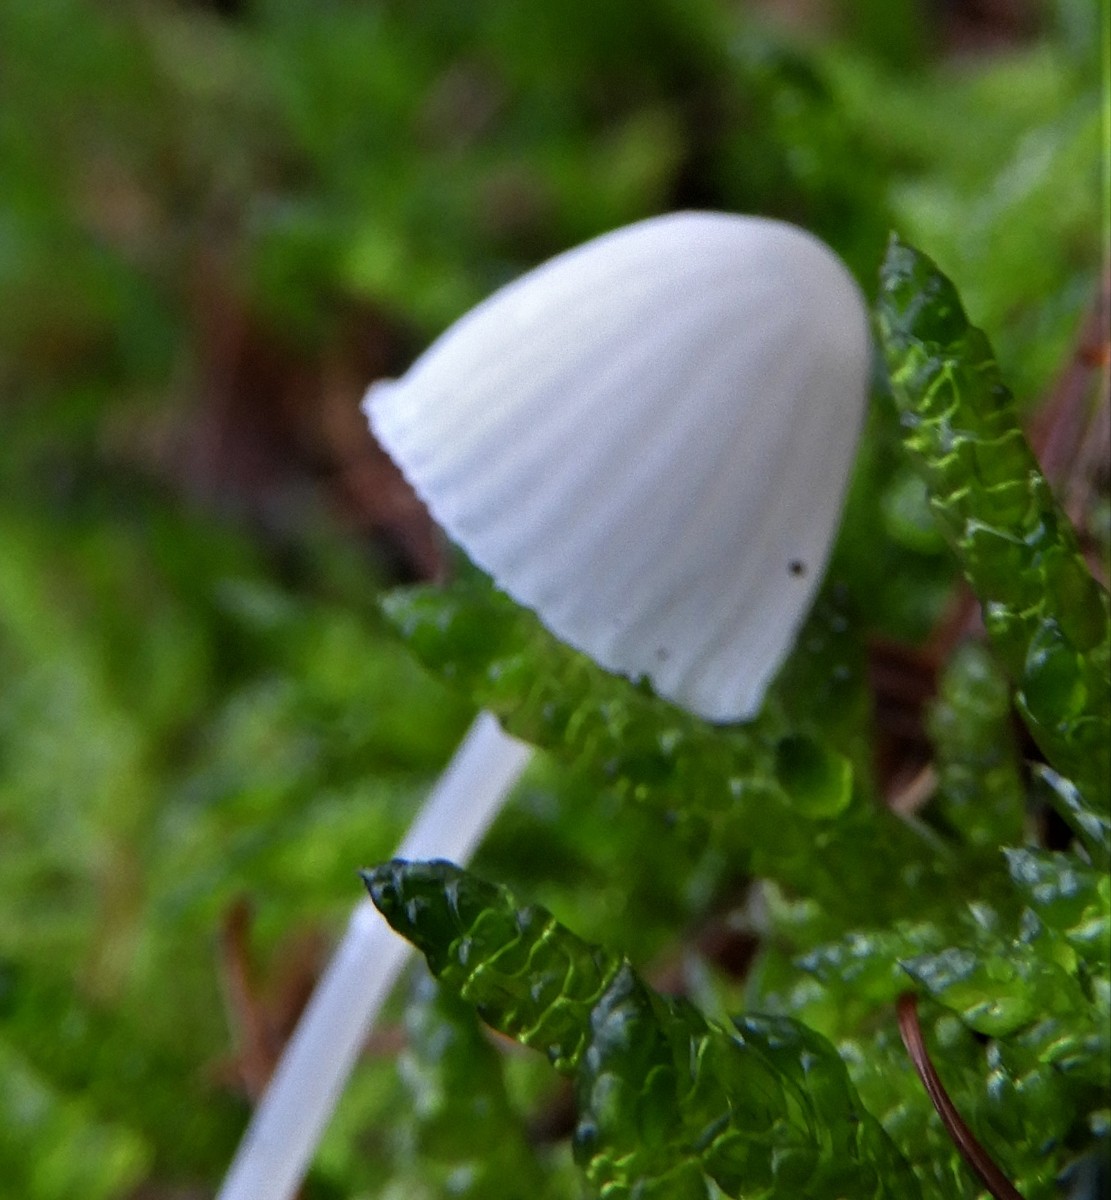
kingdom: Fungi
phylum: Basidiomycota
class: Agaricomycetes
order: Agaricales
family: Mycenaceae
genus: Mycena
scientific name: Mycena
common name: huesvamp
